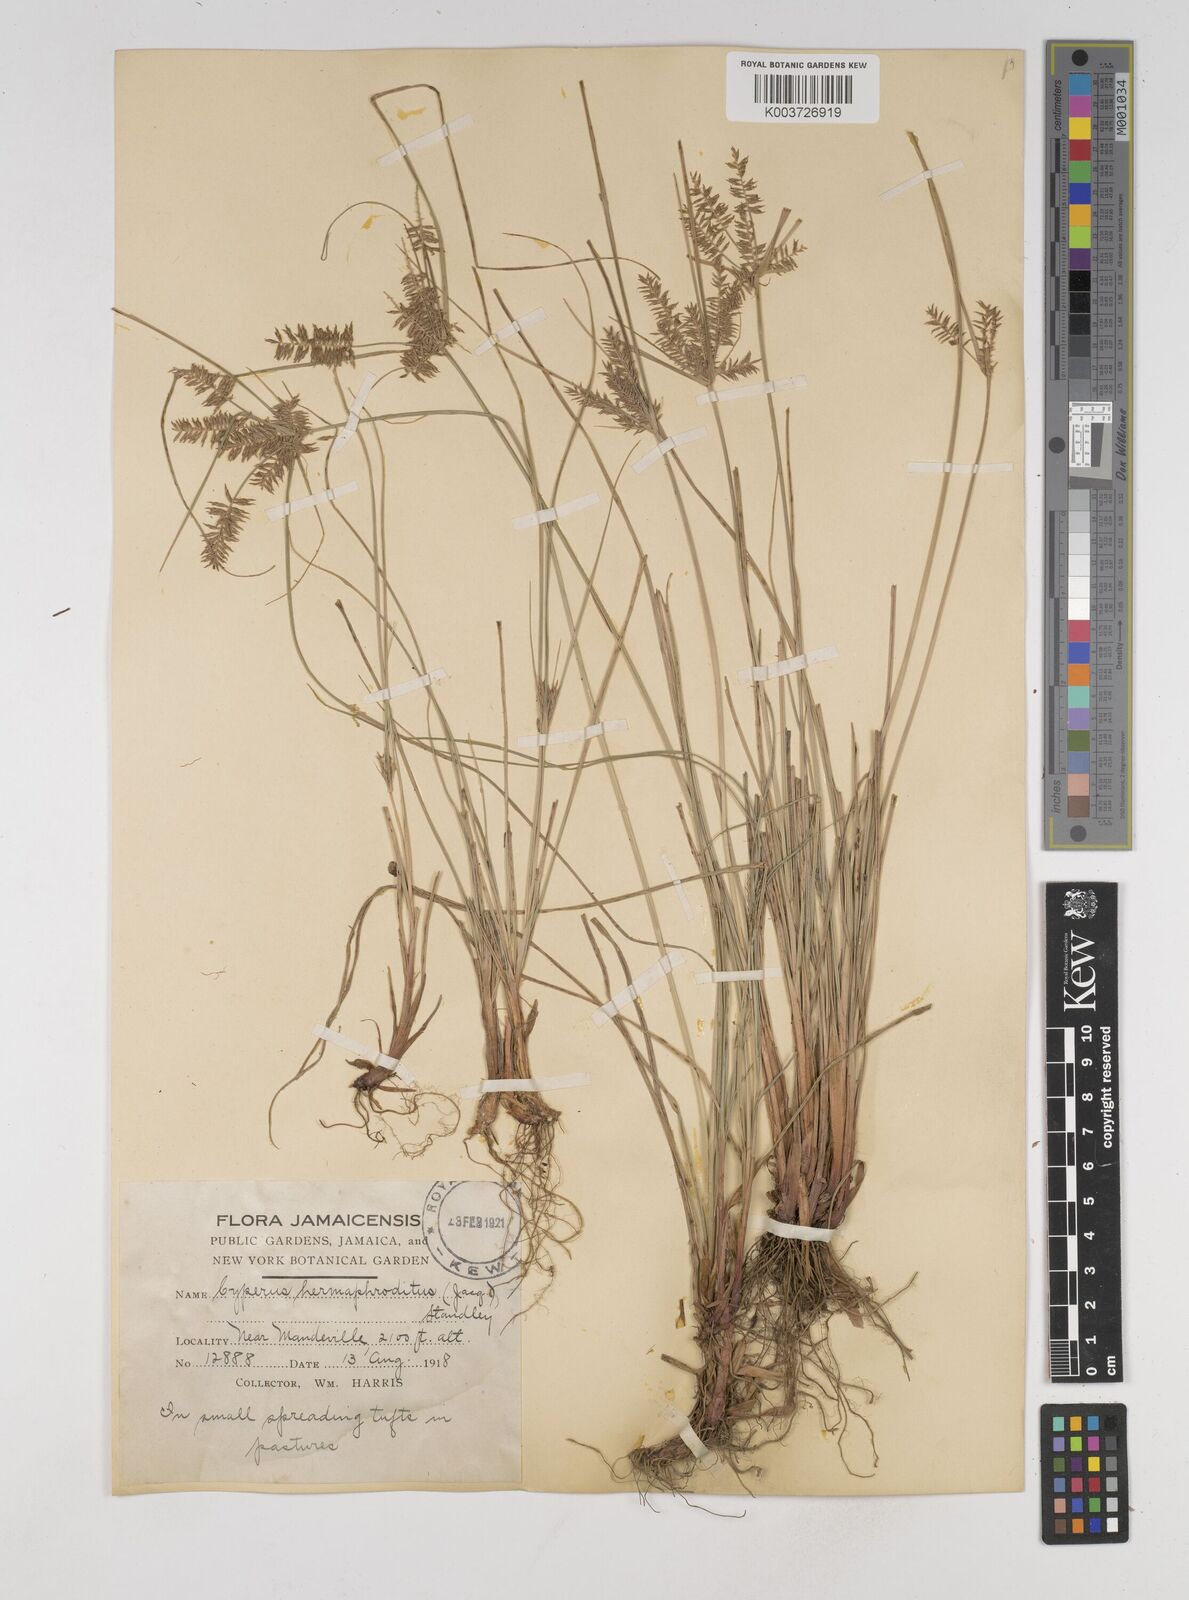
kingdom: Plantae
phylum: Tracheophyta
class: Liliopsida
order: Poales
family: Cyperaceae
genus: Cyperus
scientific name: Cyperus hermaphroditus
